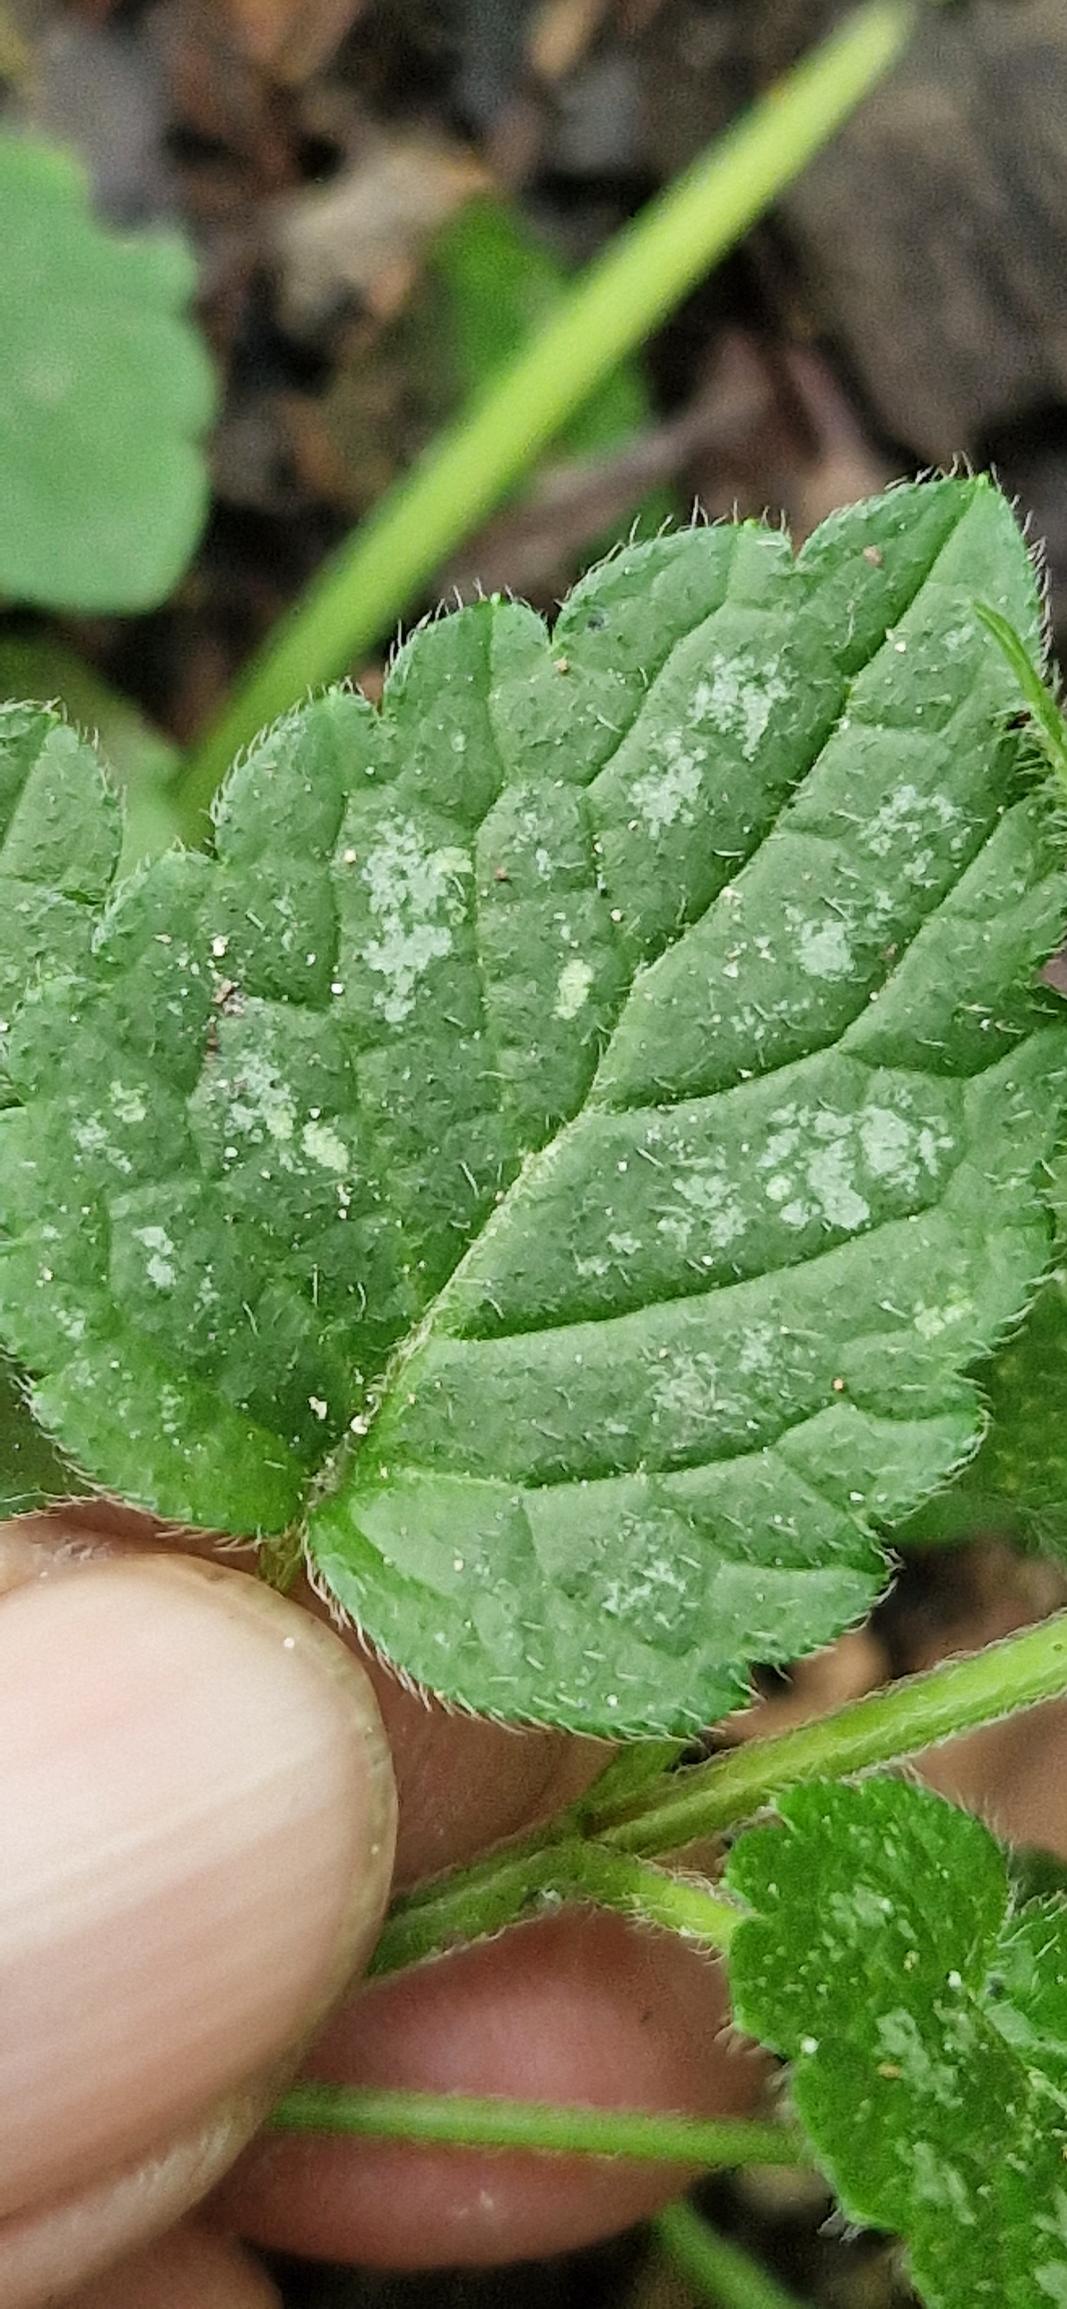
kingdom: Plantae
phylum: Tracheophyta
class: Magnoliopsida
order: Lamiales
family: Lamiaceae
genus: Lamium
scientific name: Lamium galeobdolon
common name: Almindelig guldnælde
